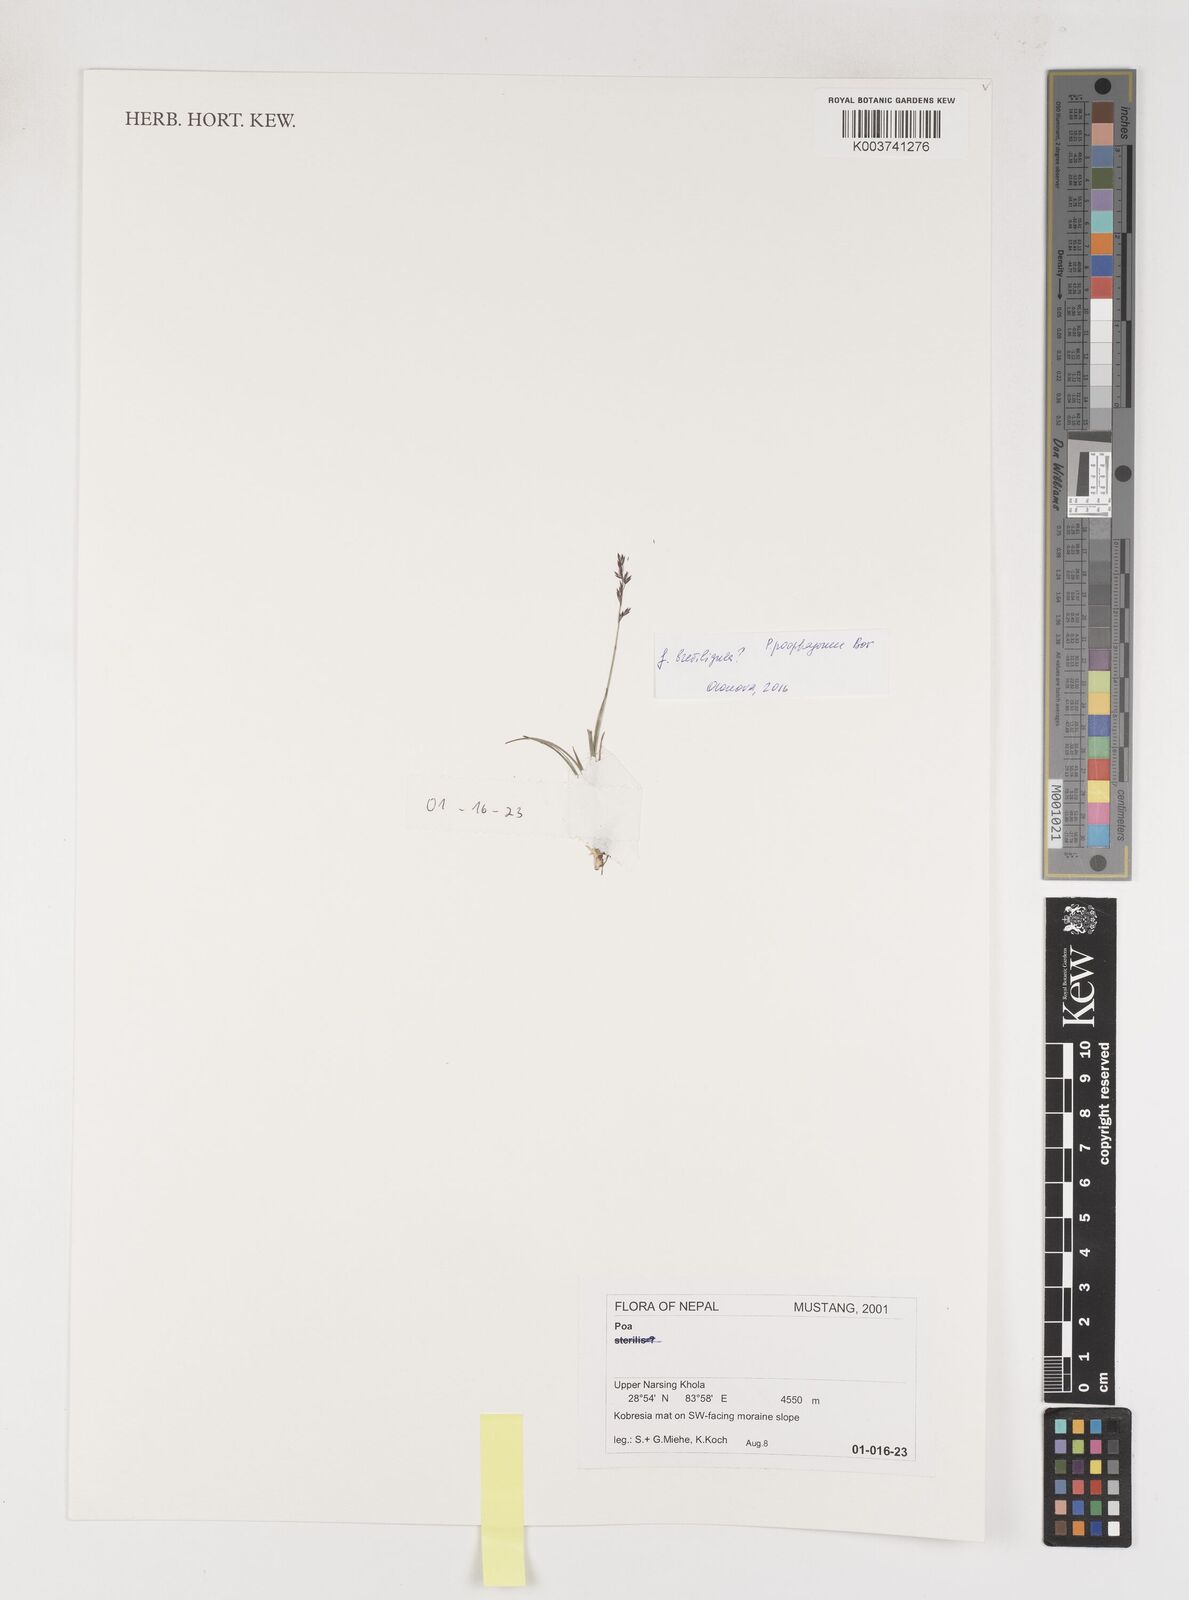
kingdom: Plantae
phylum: Tracheophyta
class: Liliopsida
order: Poales
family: Poaceae
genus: Poa
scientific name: Poa
